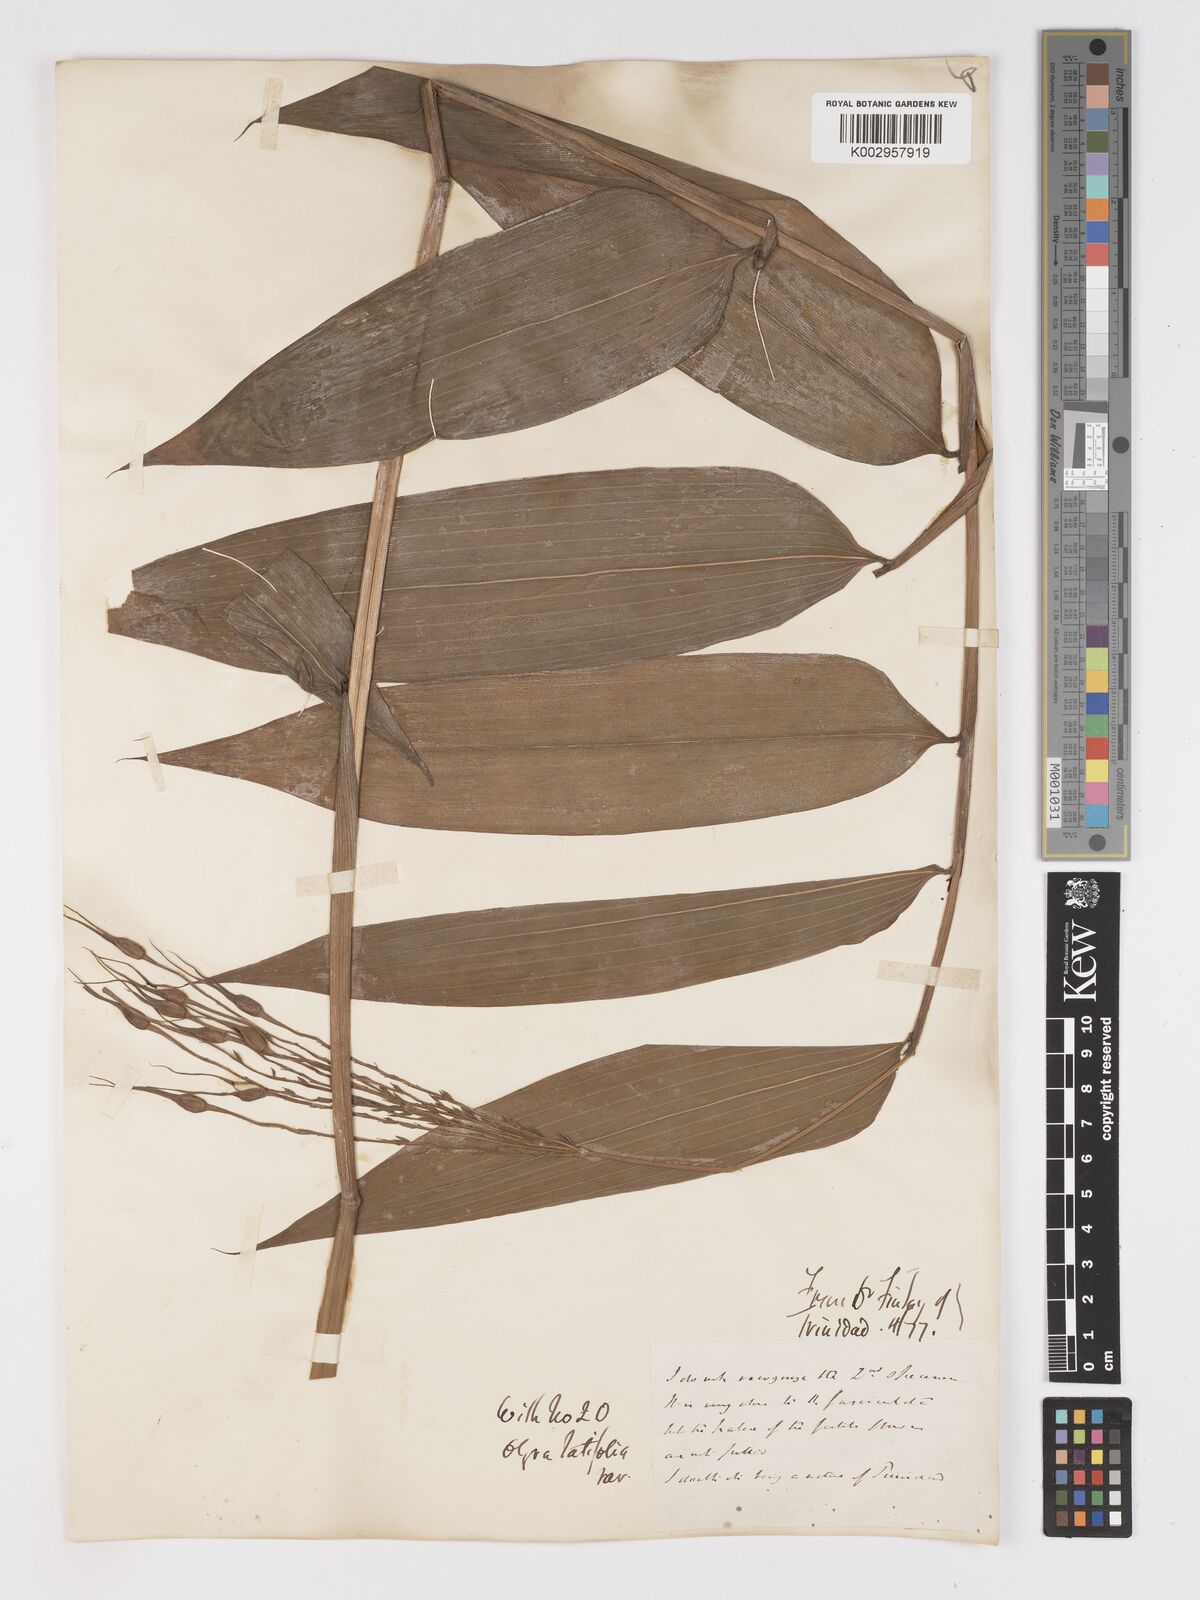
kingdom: Plantae
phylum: Tracheophyta
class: Liliopsida
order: Poales
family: Poaceae
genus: Olyra
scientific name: Olyra latifolia
